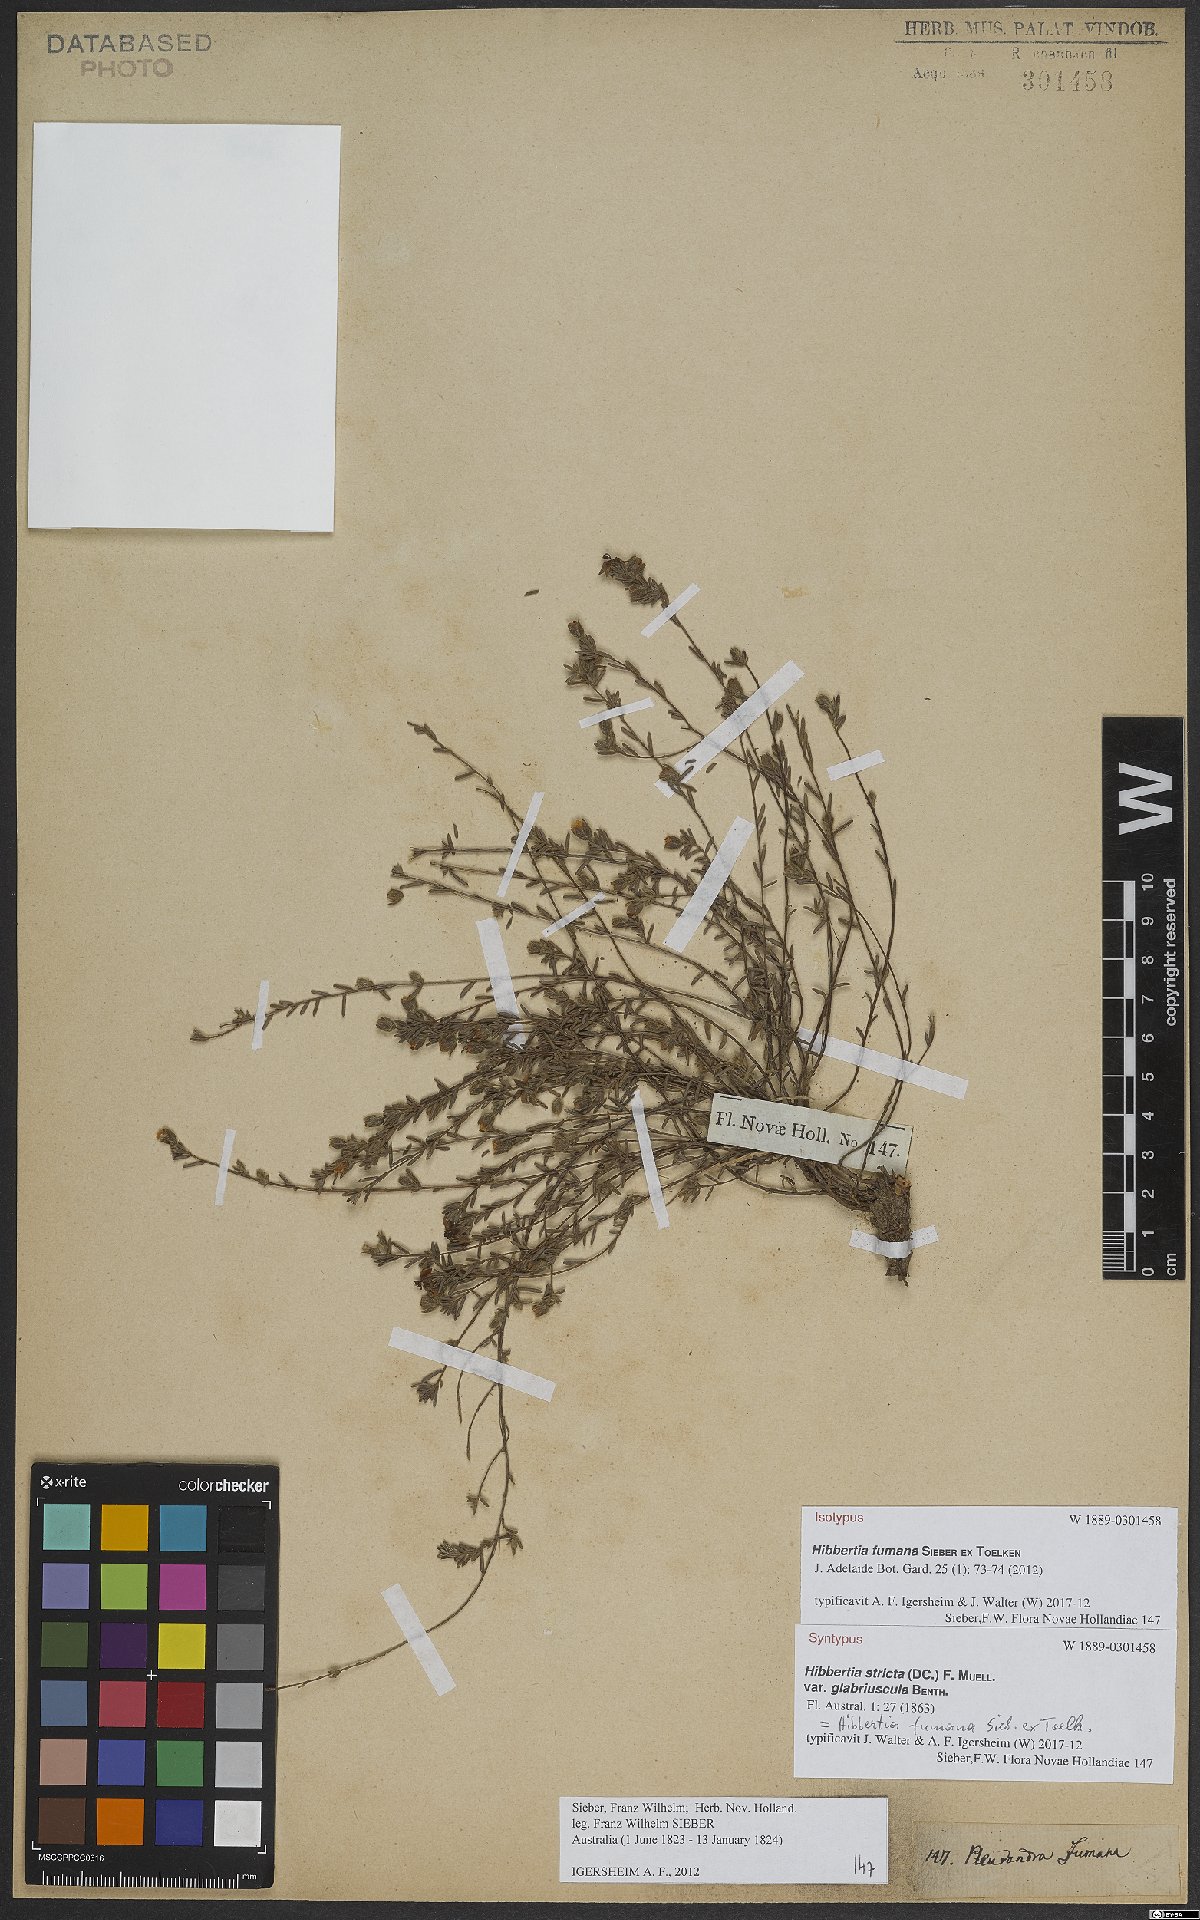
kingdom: Plantae
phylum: Tracheophyta
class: Magnoliopsida
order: Dilleniales
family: Dilleniaceae
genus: Hibbertia
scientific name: Hibbertia fumana
